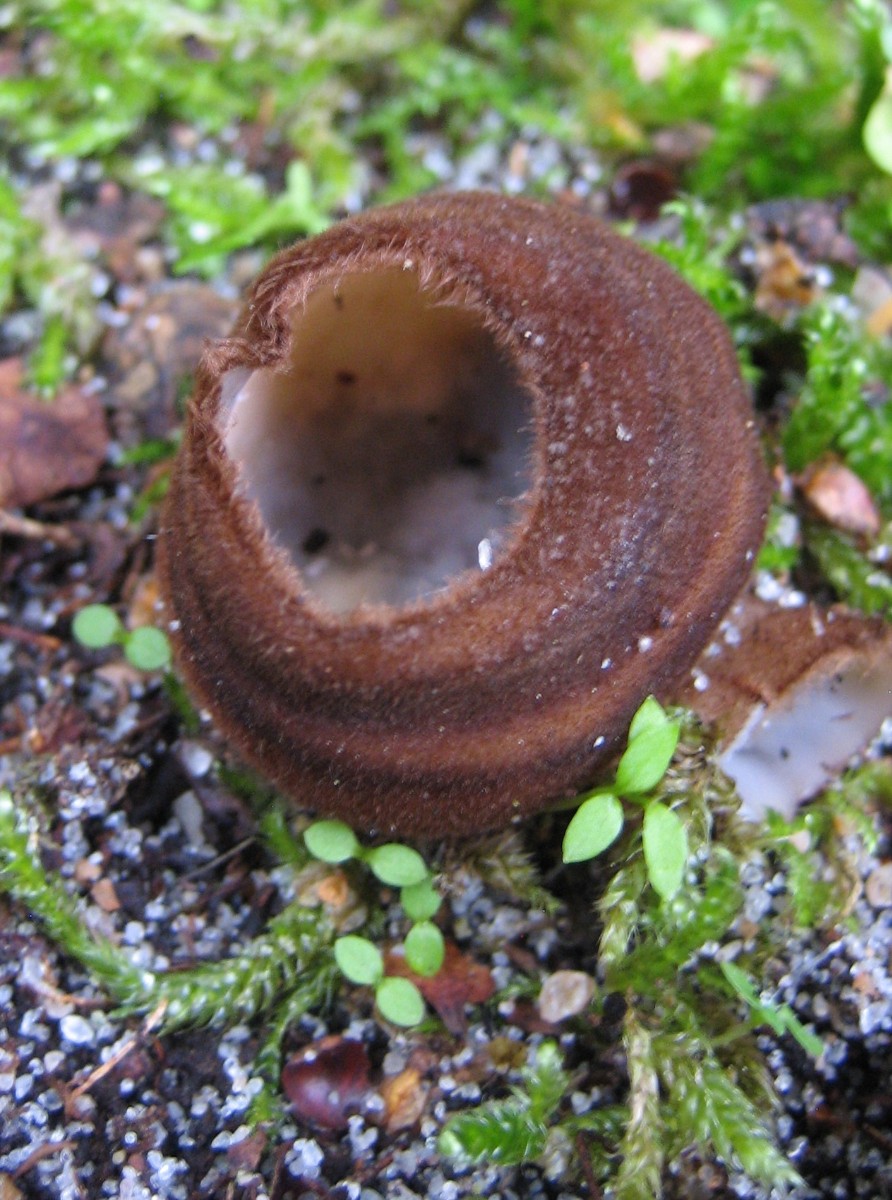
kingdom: Fungi
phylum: Ascomycota
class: Pezizomycetes
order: Pezizales
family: Pyronemataceae
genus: Humaria
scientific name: Humaria hemisphaerica
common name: halvkugleformet børstebæger
